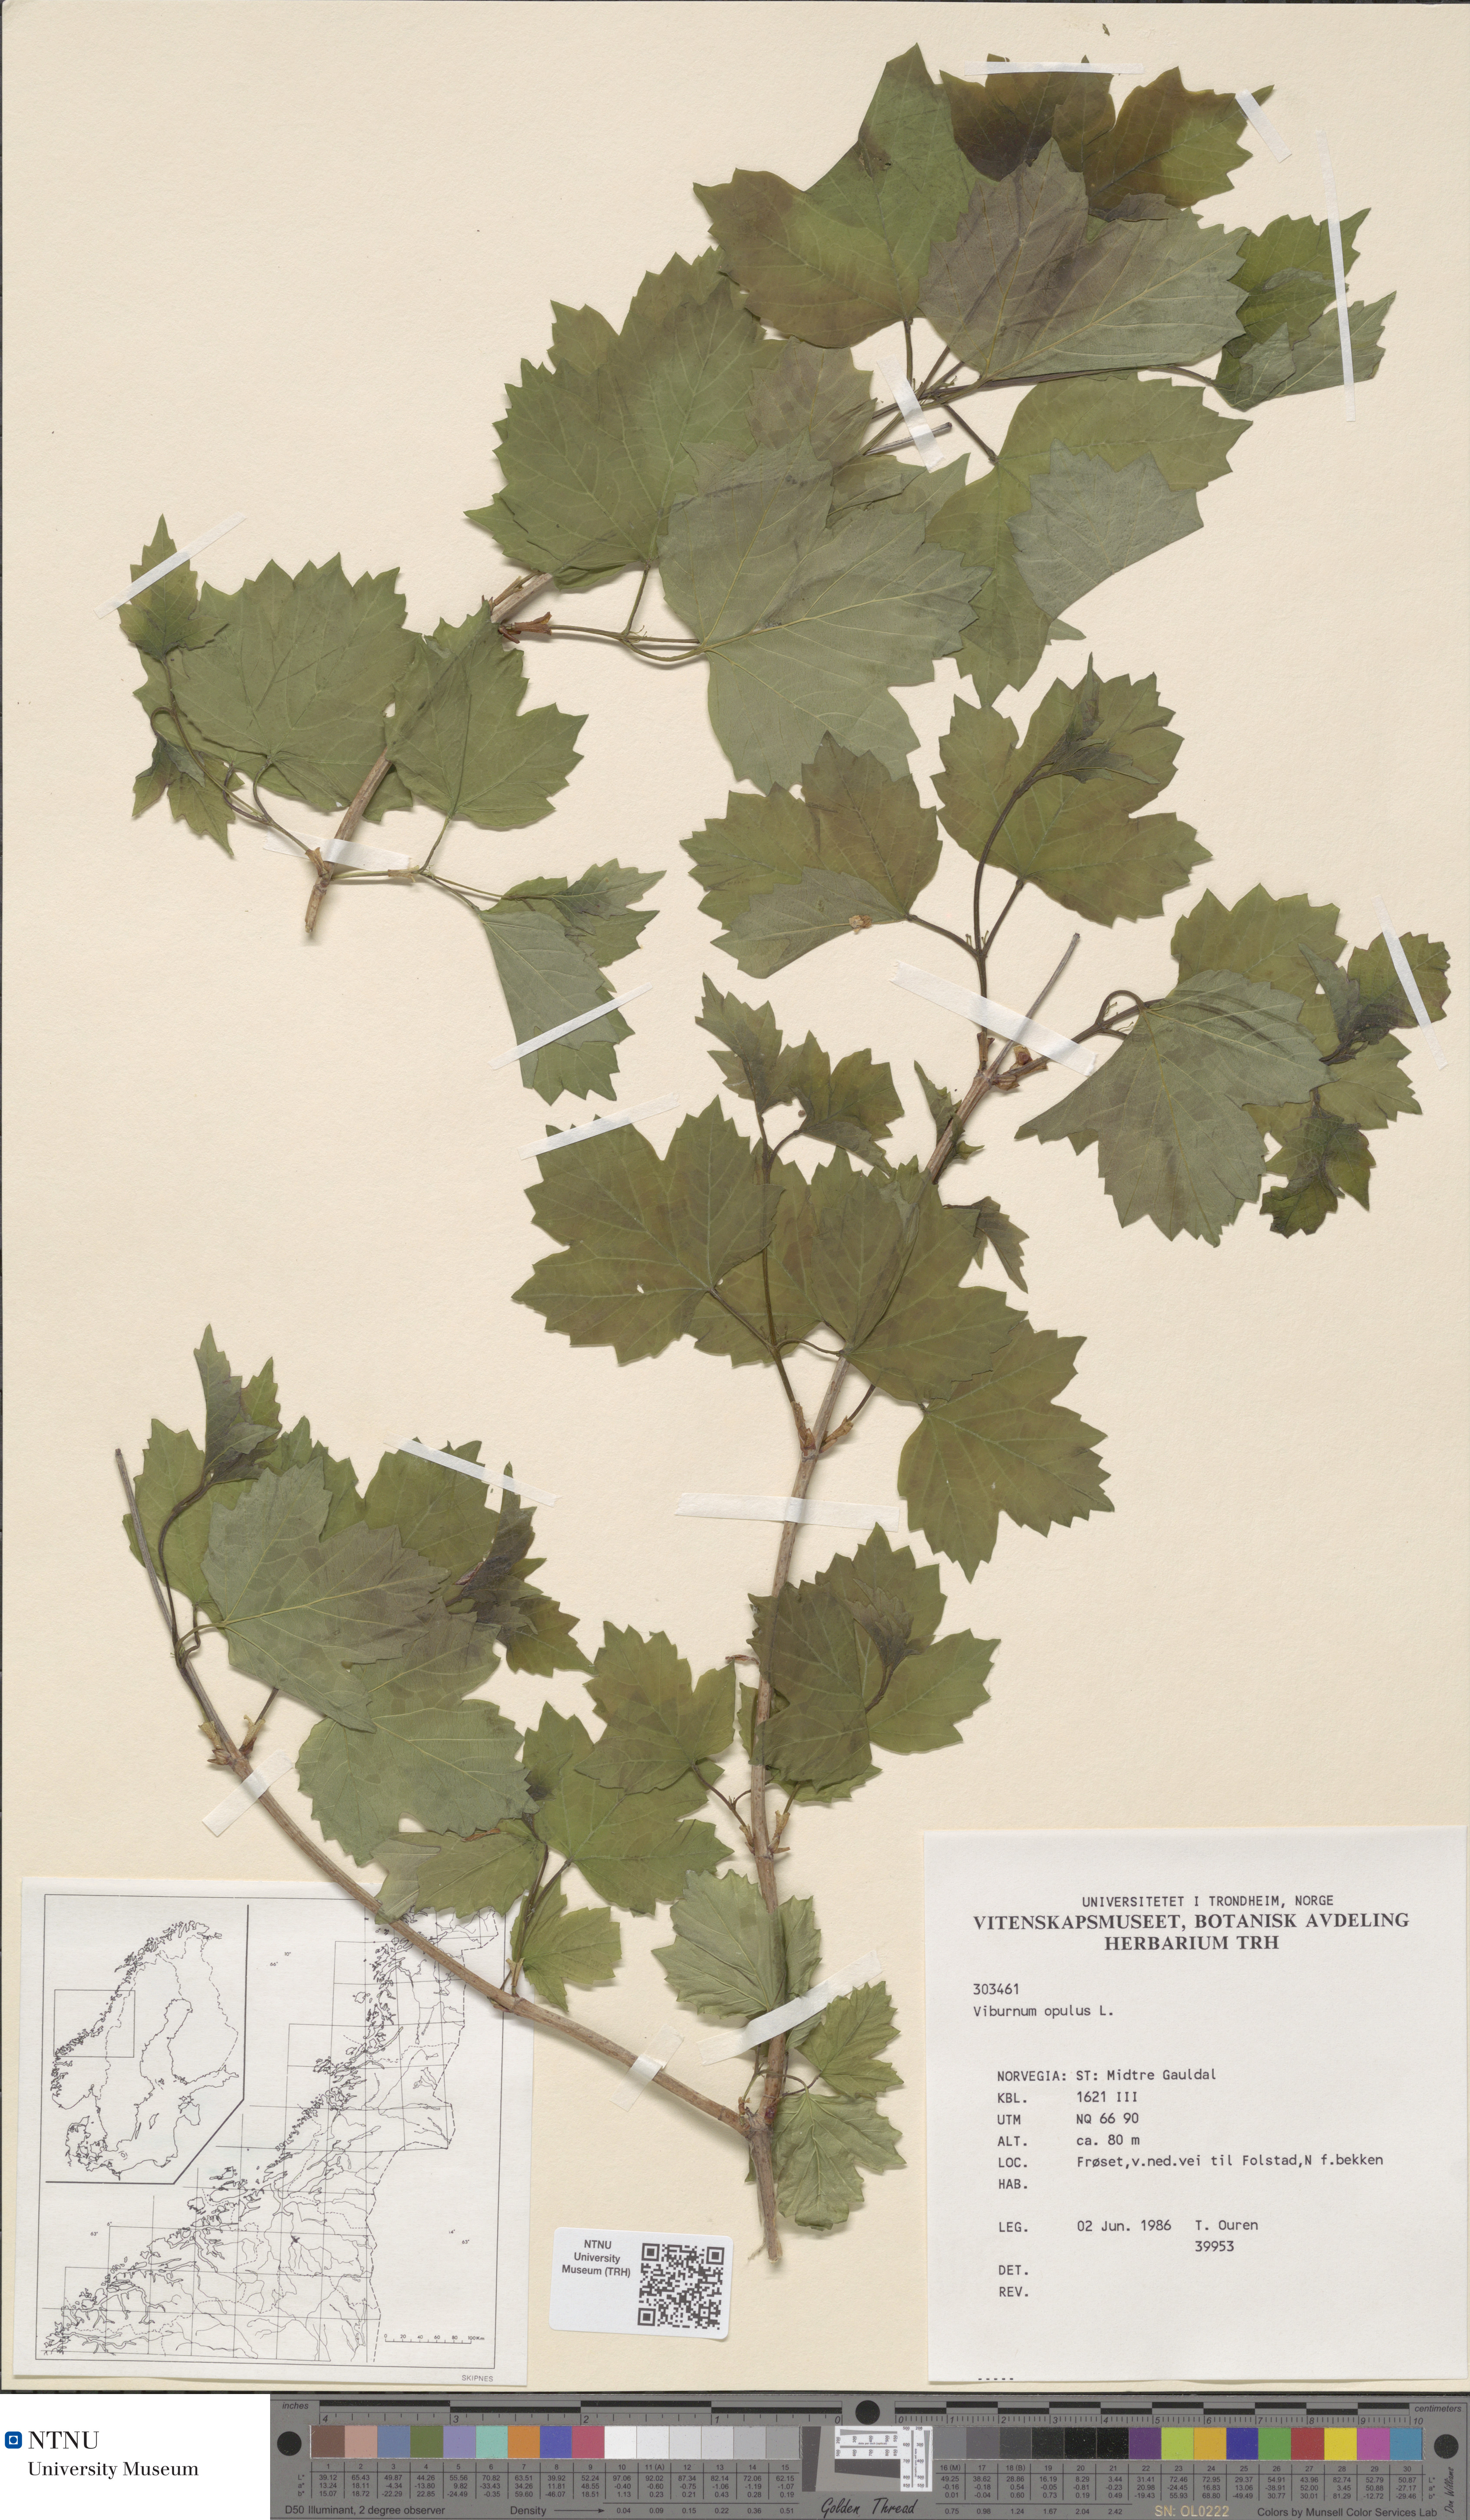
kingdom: Plantae
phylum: Tracheophyta
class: Magnoliopsida
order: Dipsacales
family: Viburnaceae
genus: Viburnum
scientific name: Viburnum opulus
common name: Guelder-rose
